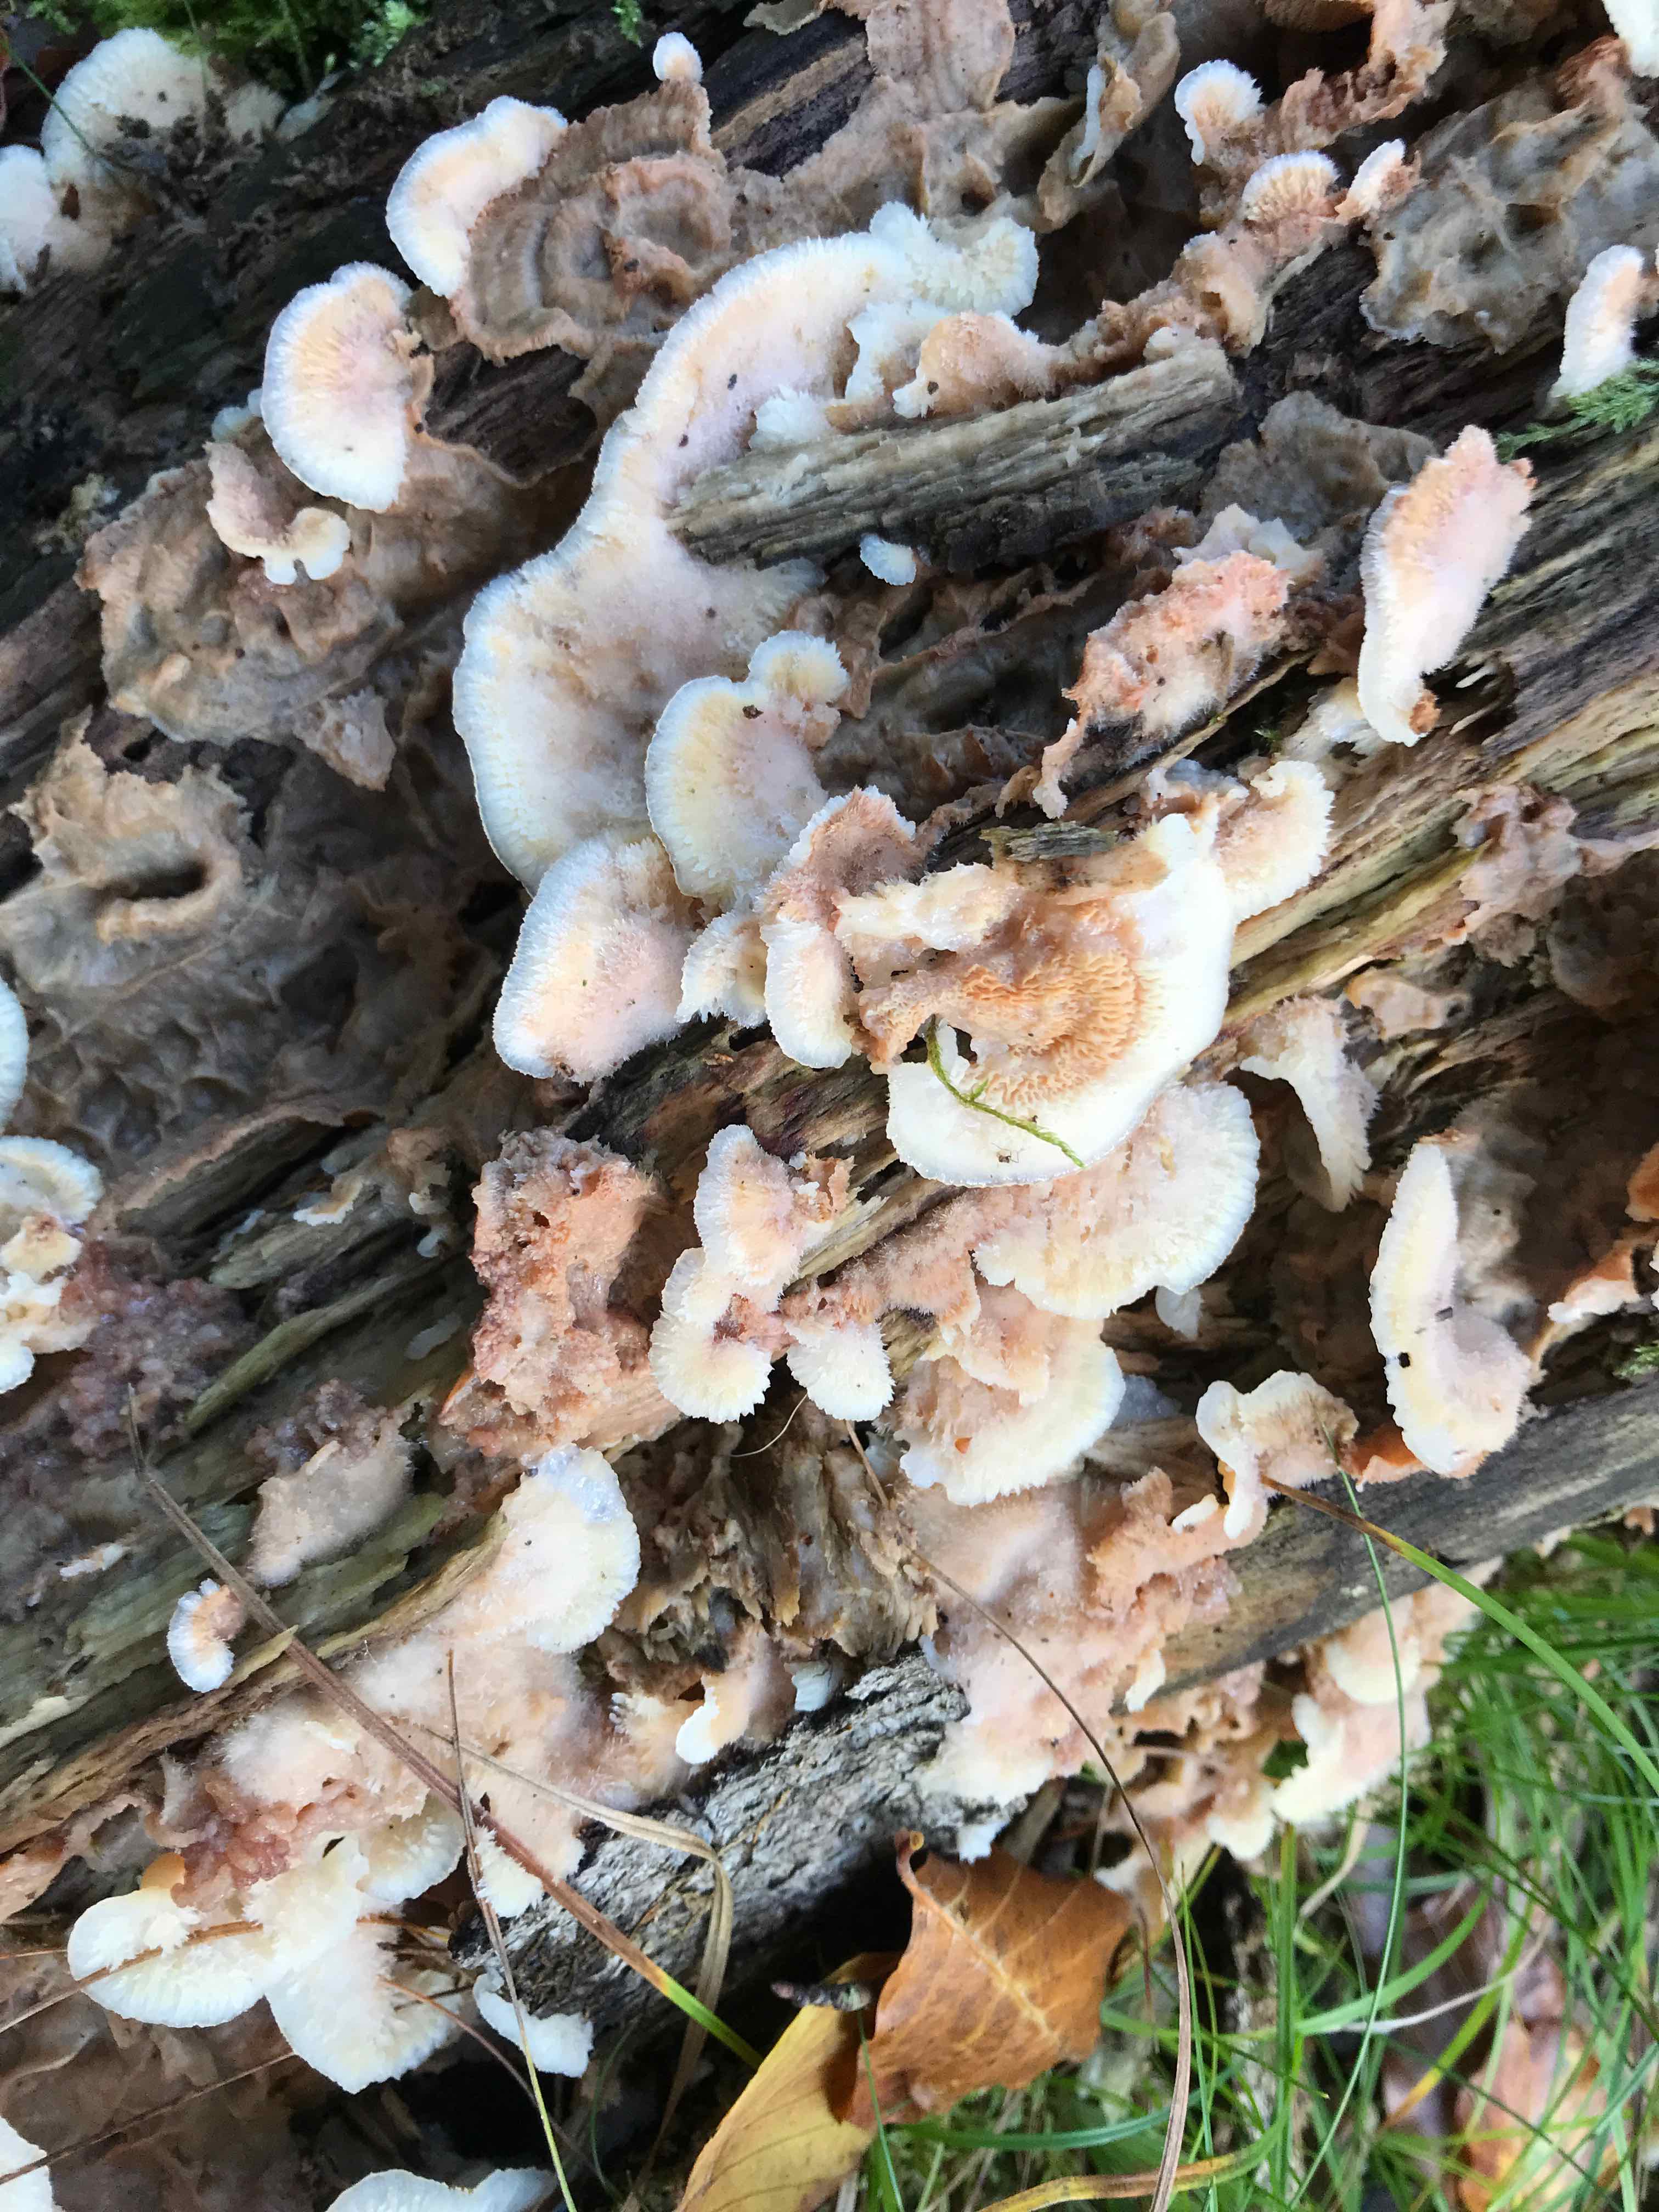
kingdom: Fungi
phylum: Basidiomycota
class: Agaricomycetes
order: Polyporales
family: Meruliaceae
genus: Phlebia
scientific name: Phlebia tremellosa
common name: bævrende åresvamp
